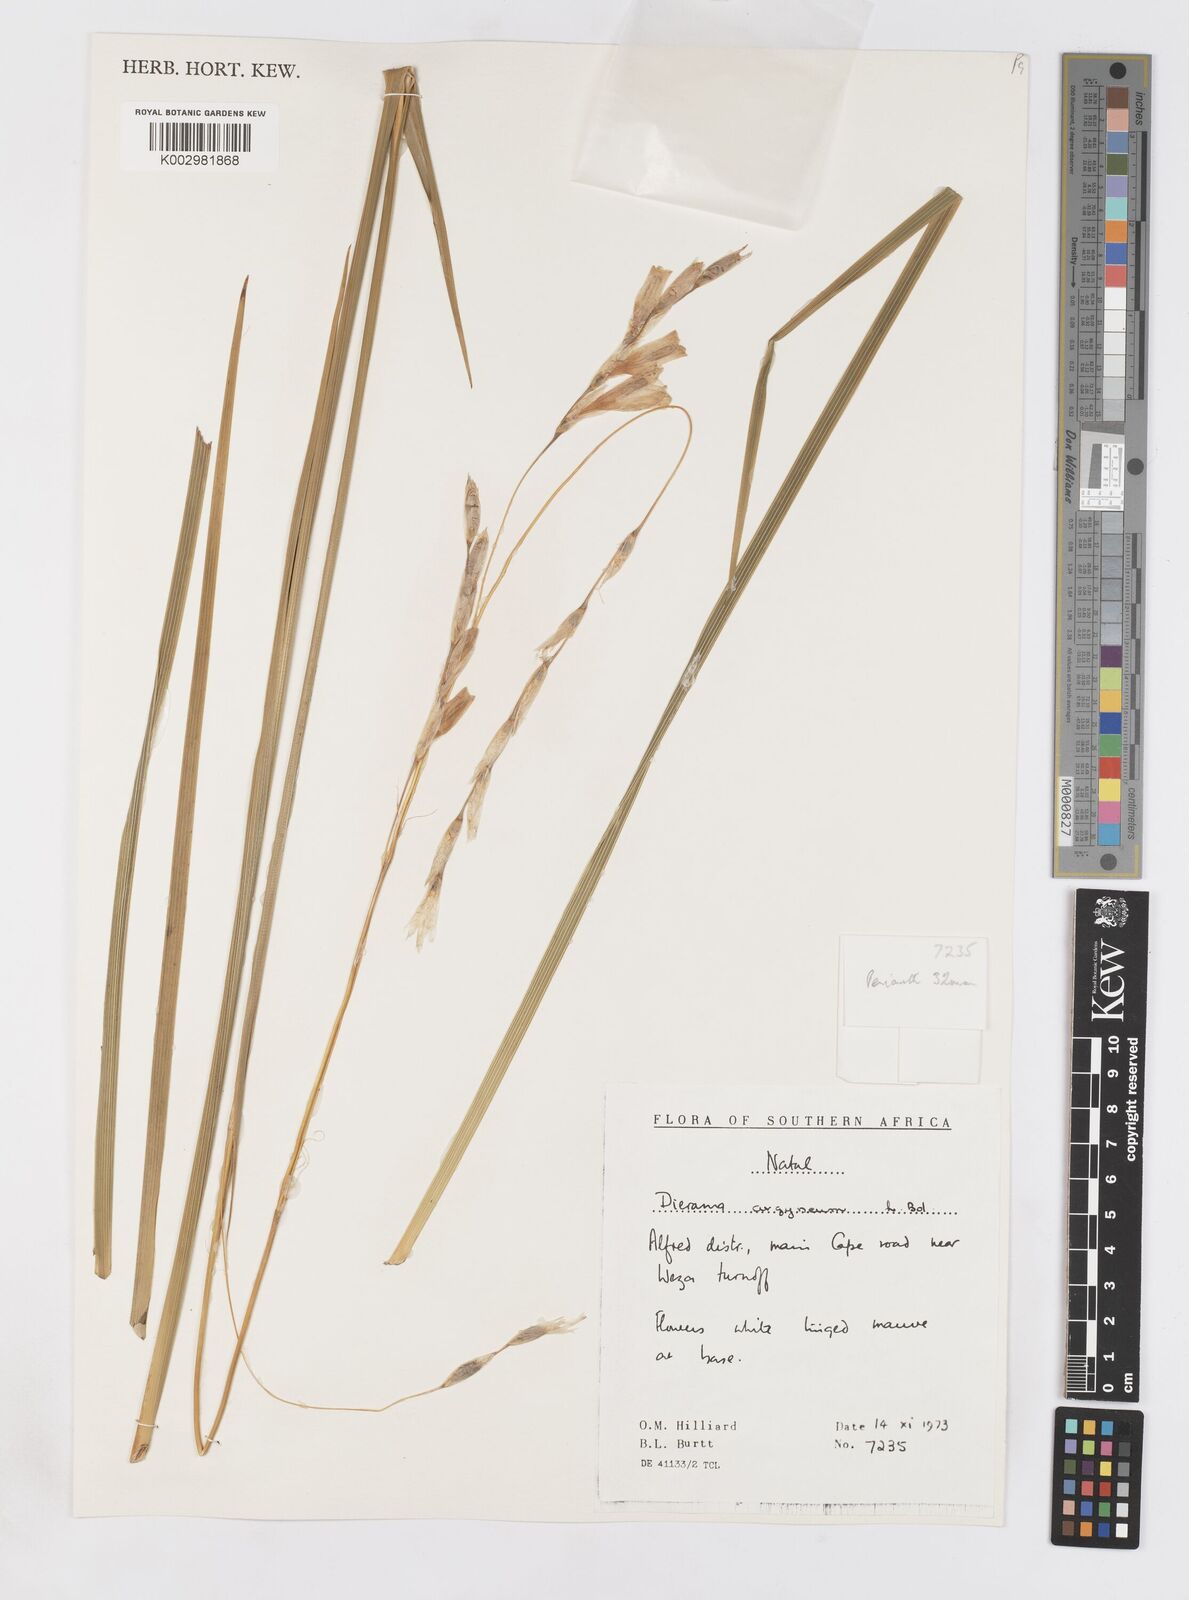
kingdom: Plantae
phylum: Tracheophyta
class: Liliopsida
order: Asparagales
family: Iridaceae
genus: Dierama
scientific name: Dierama argyreum
